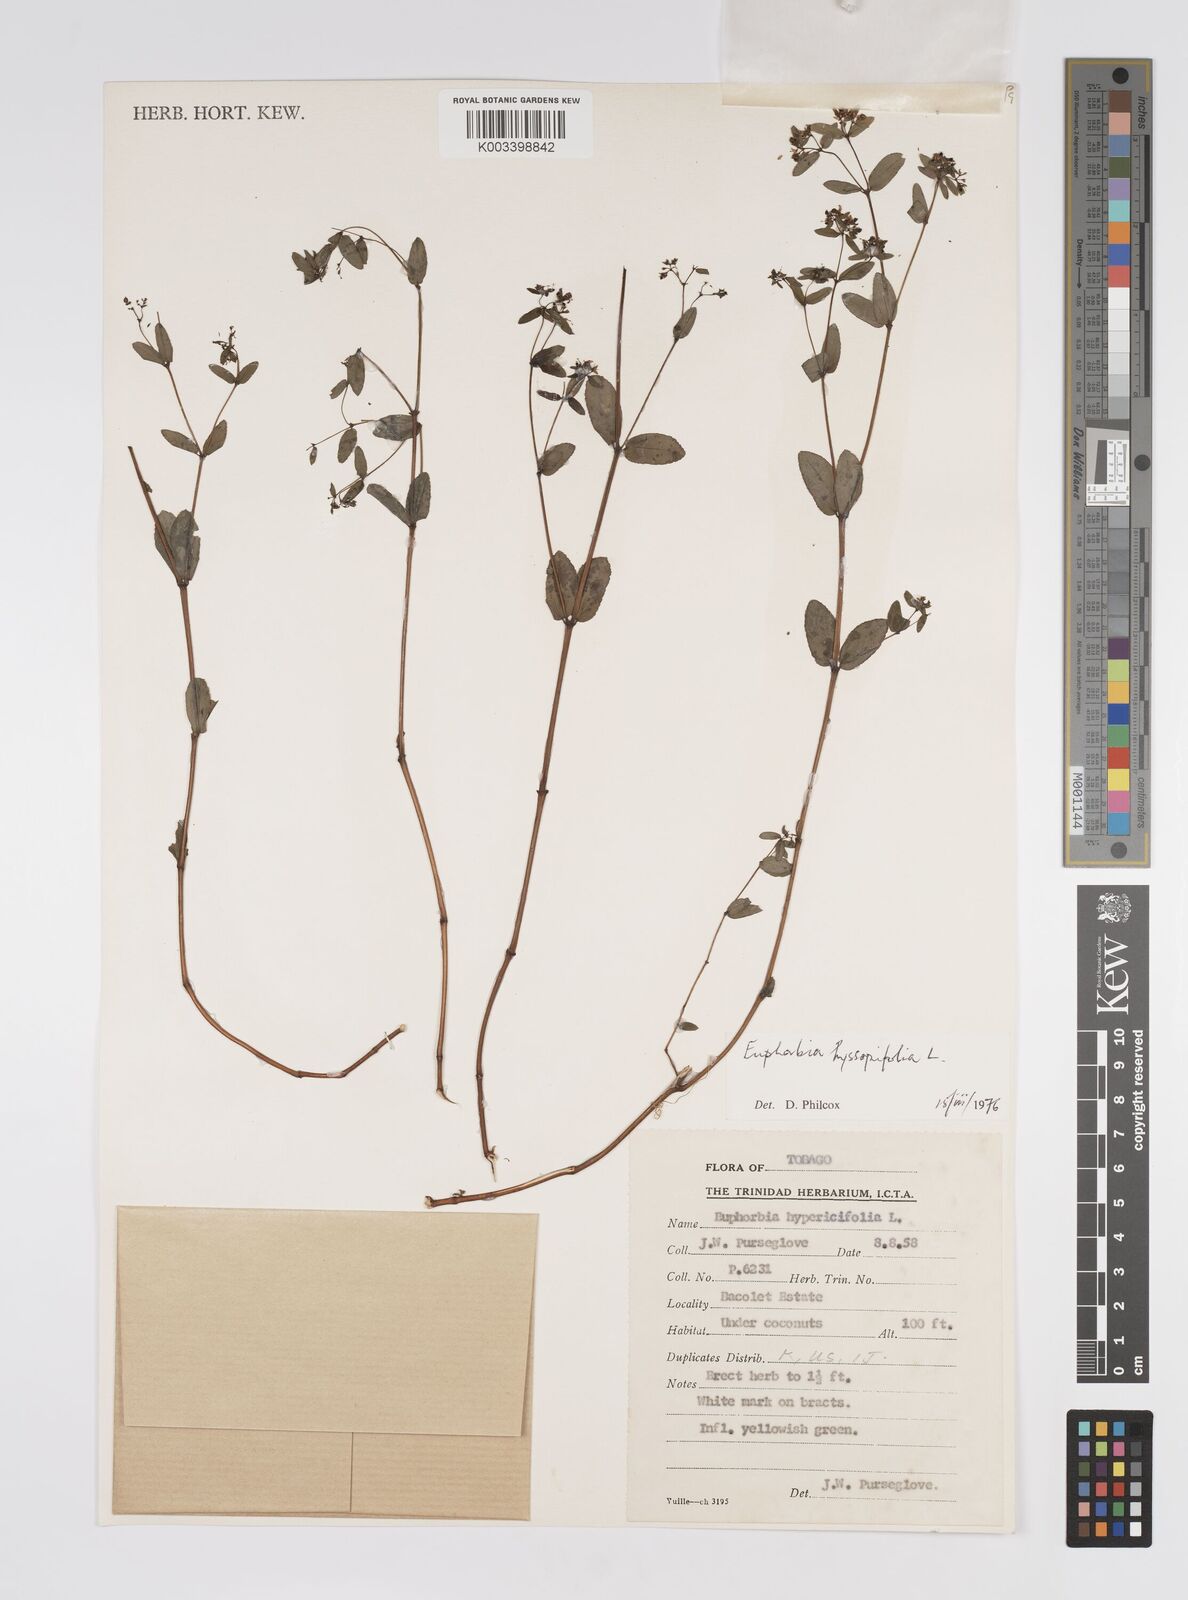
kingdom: Plantae
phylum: Tracheophyta
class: Magnoliopsida
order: Malpighiales
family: Euphorbiaceae
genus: Euphorbia
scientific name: Euphorbia hyssopifolia
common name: Hyssopleaf sandmat
